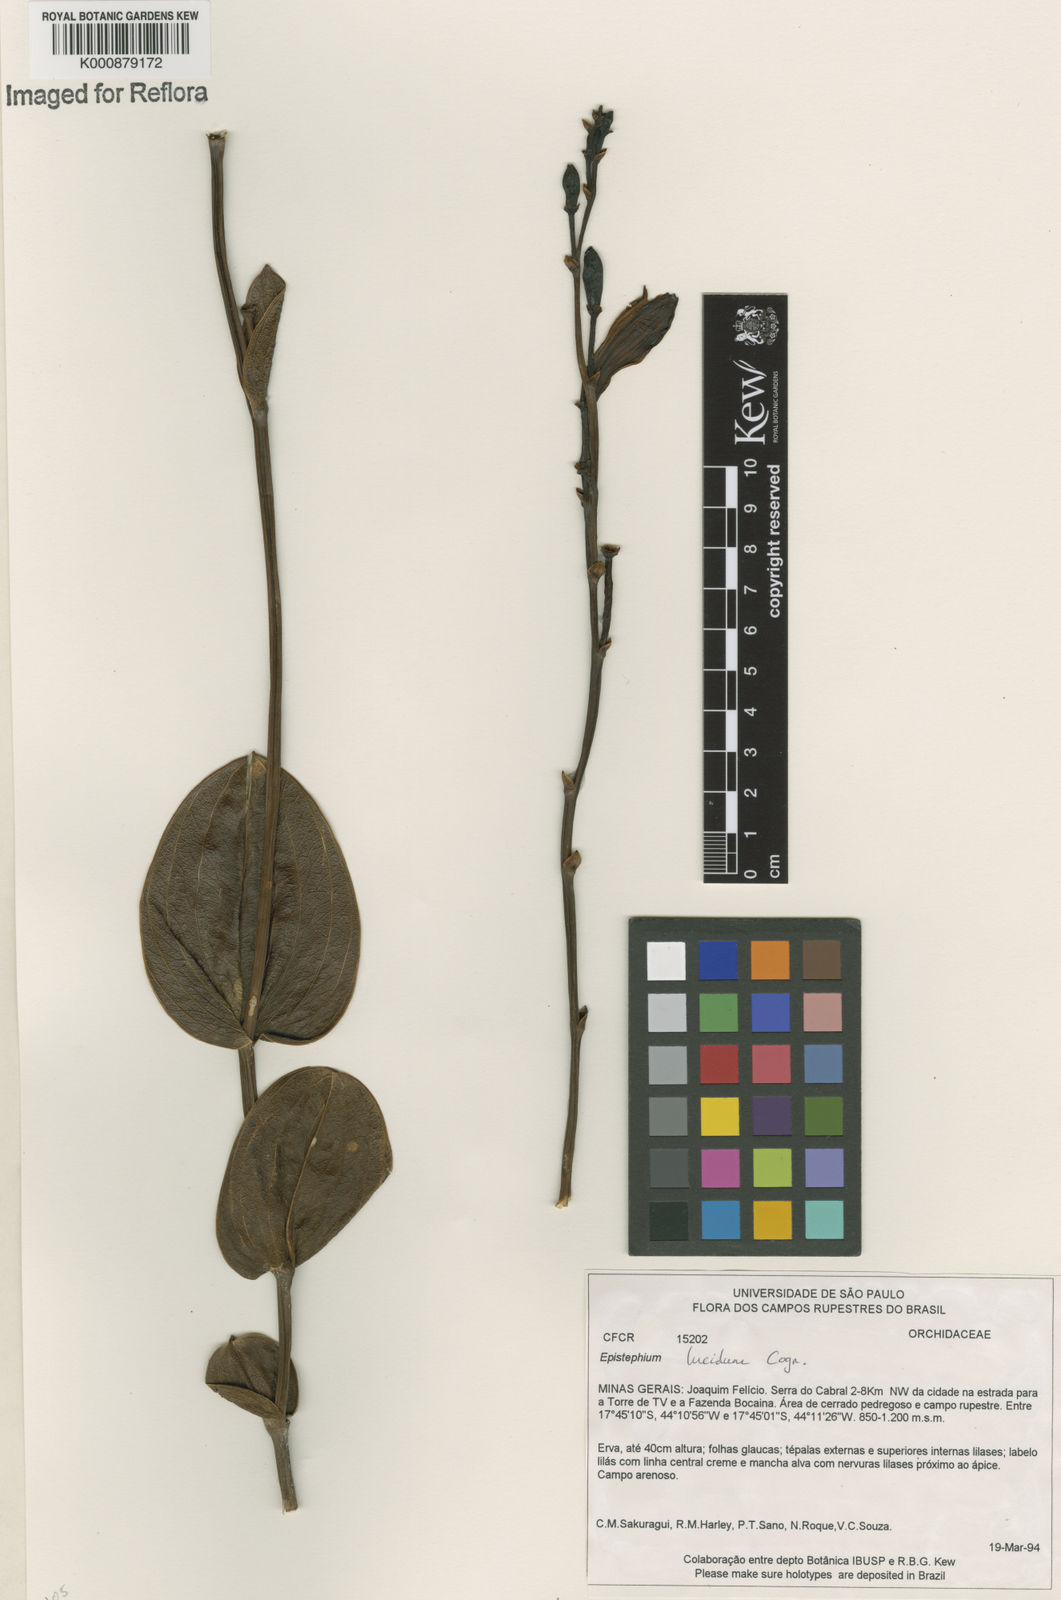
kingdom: Plantae
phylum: Tracheophyta
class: Liliopsida
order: Asparagales
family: Orchidaceae
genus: Epistephium
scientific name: Epistephium williamsii
